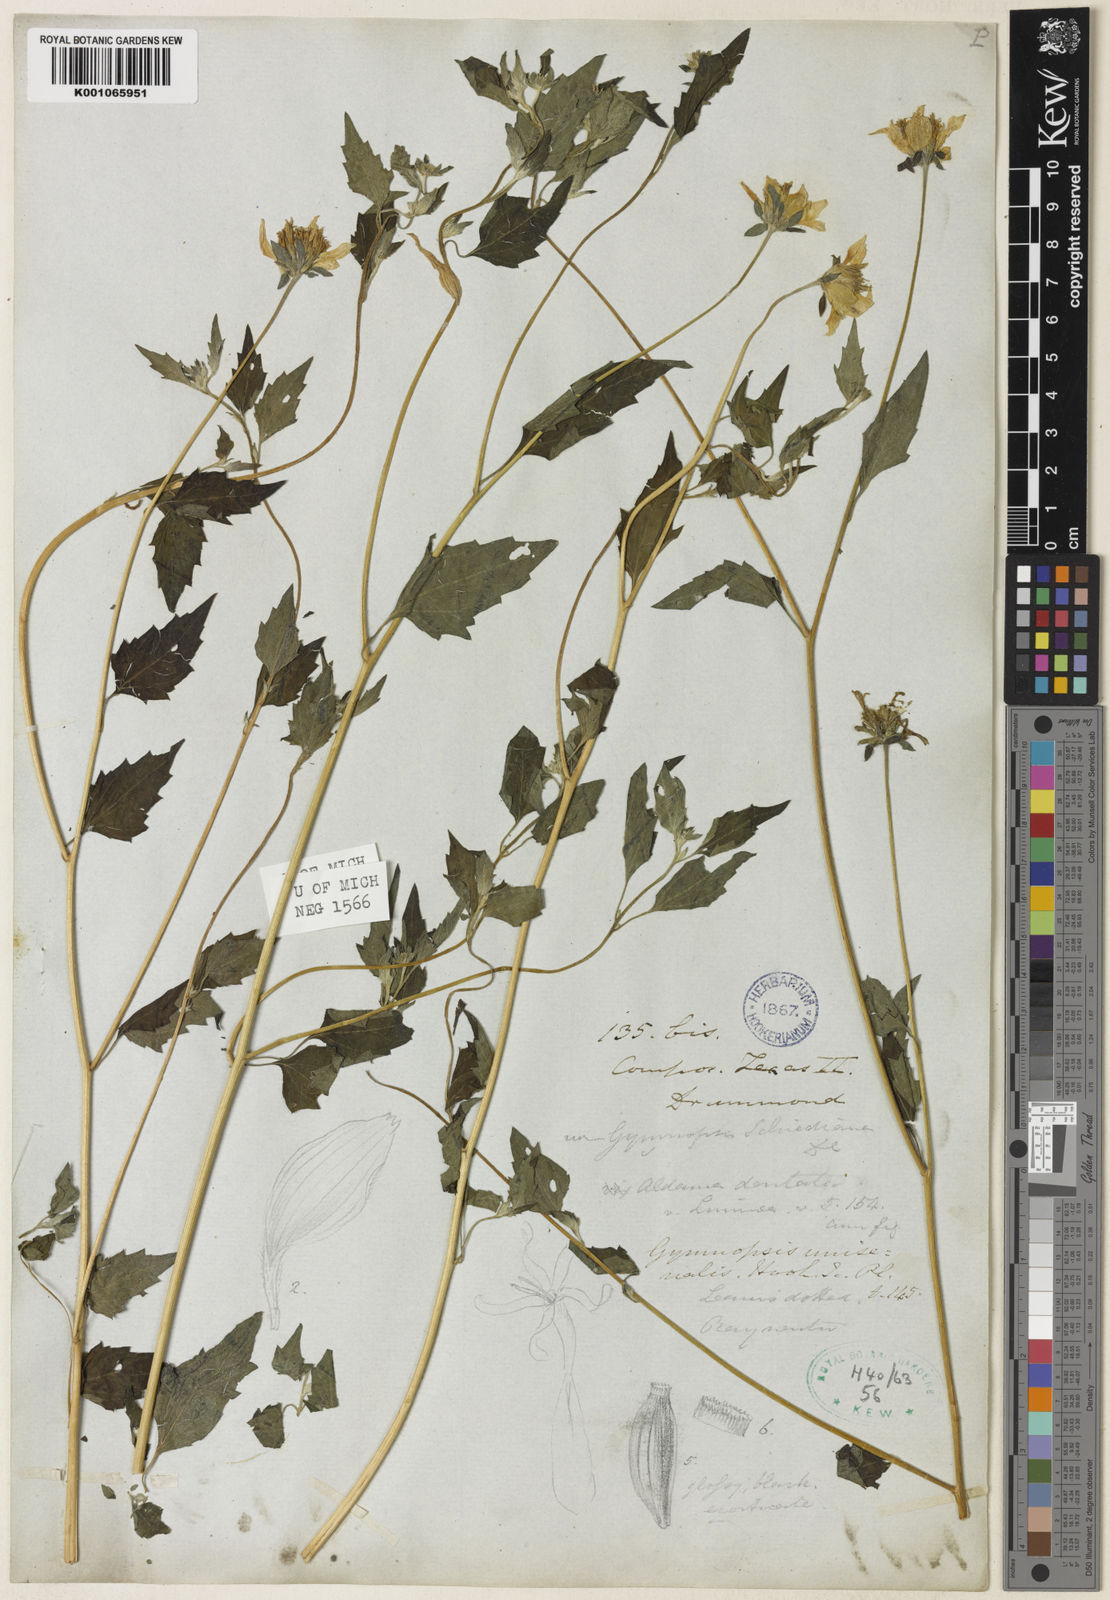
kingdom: Plantae
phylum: Tracheophyta
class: Magnoliopsida
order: Asterales
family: Asteraceae
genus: Sclerocarpus
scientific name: Sclerocarpus
